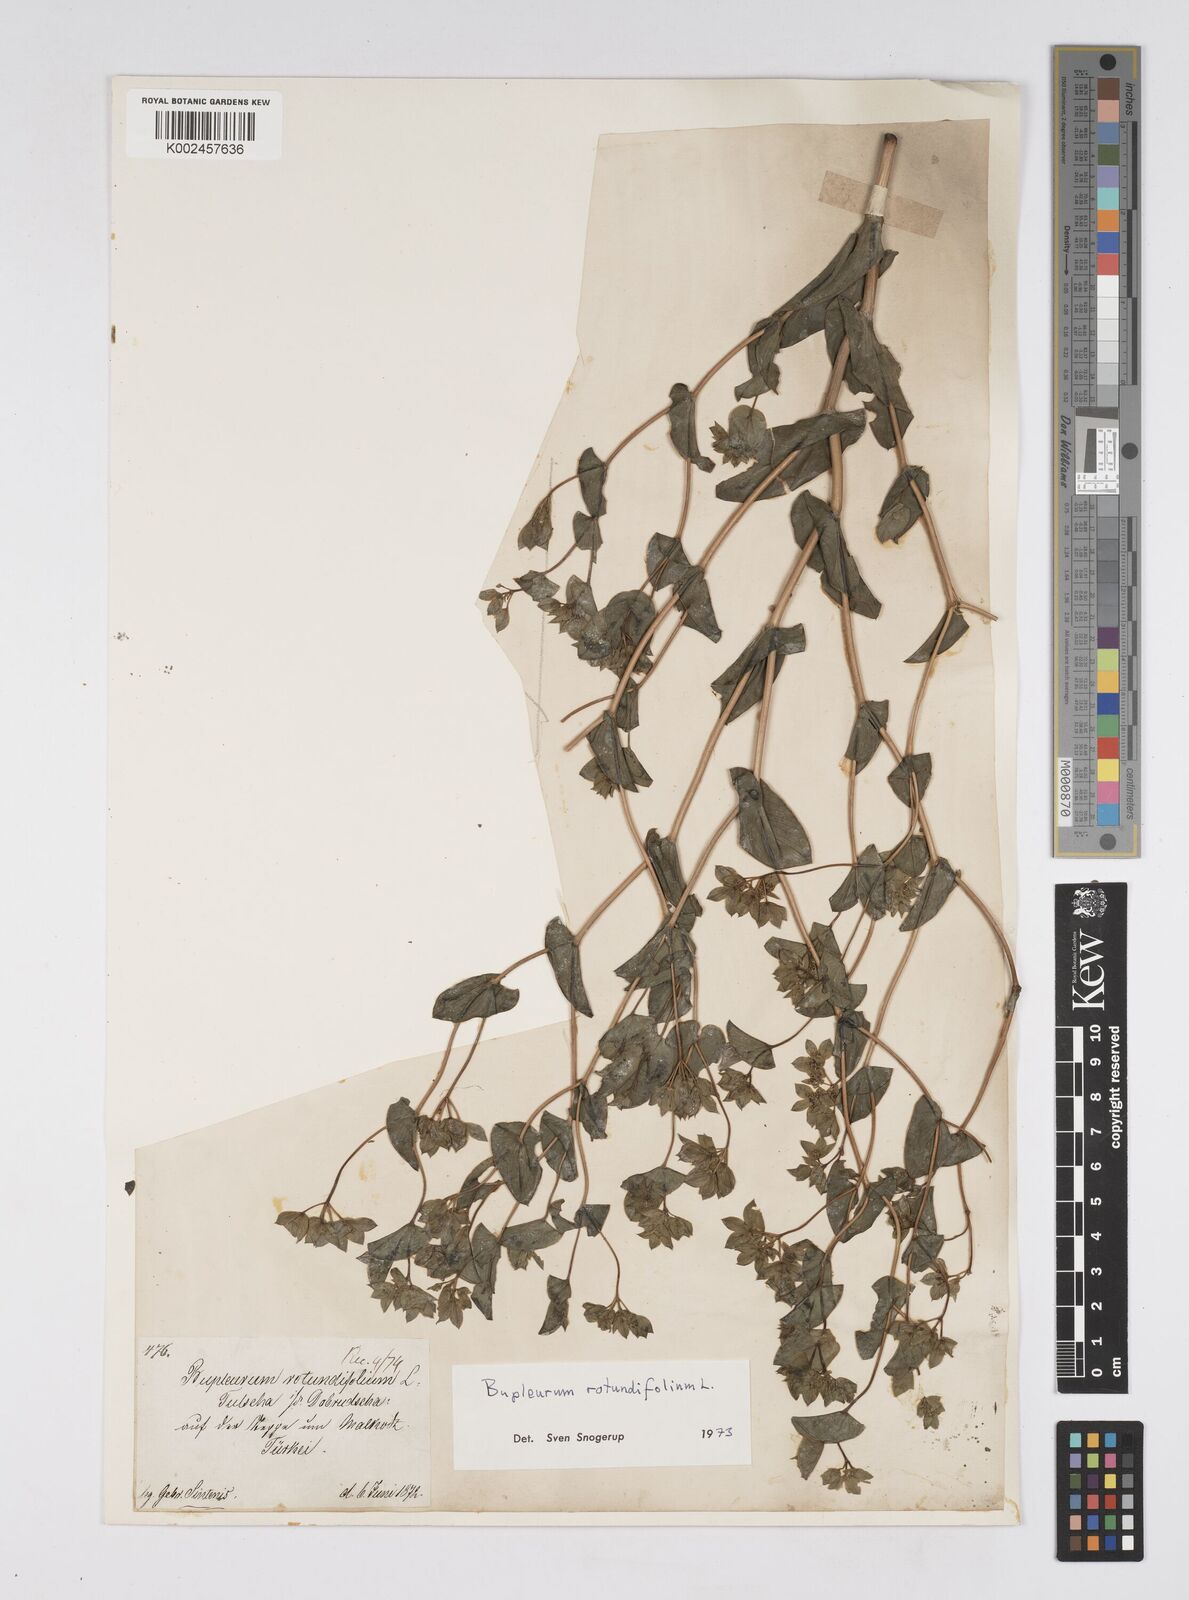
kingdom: Plantae
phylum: Tracheophyta
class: Magnoliopsida
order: Apiales
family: Apiaceae
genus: Bupleurum
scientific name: Bupleurum rotundifolium
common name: Thorow-wax
